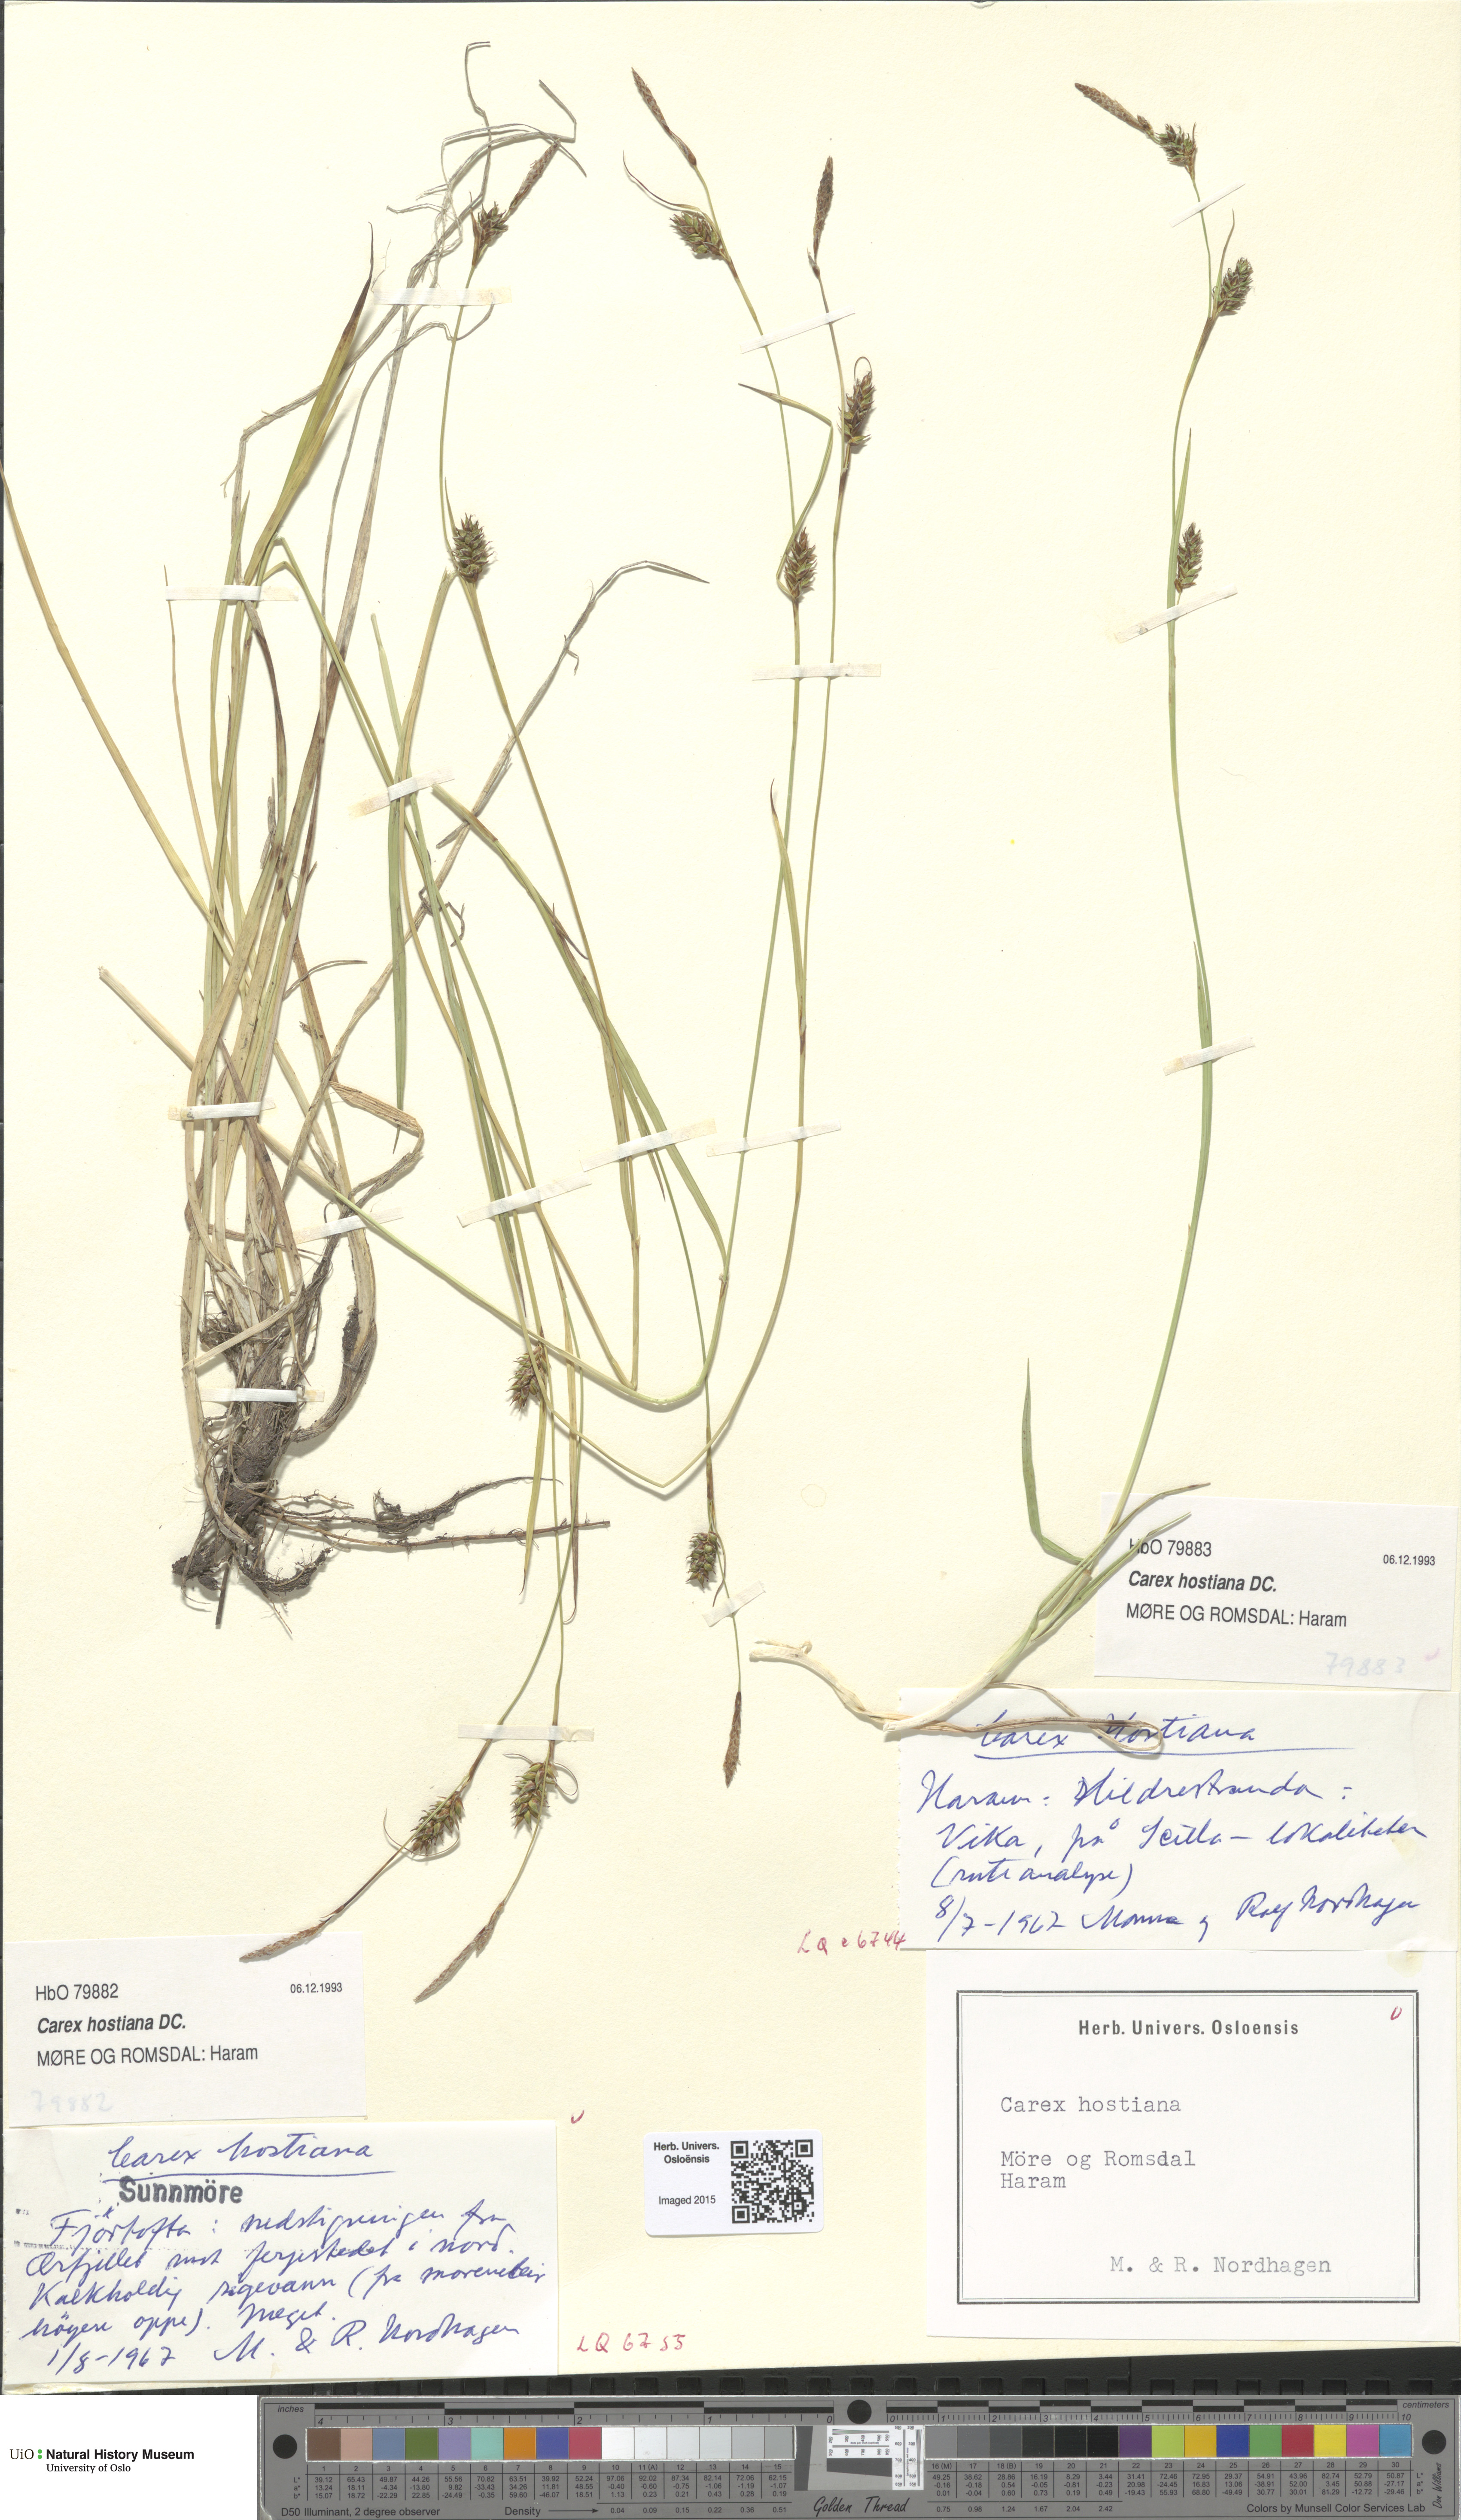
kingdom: Plantae
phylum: Tracheophyta
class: Liliopsida
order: Poales
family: Cyperaceae
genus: Carex
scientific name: Carex hostiana
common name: Tawny sedge
